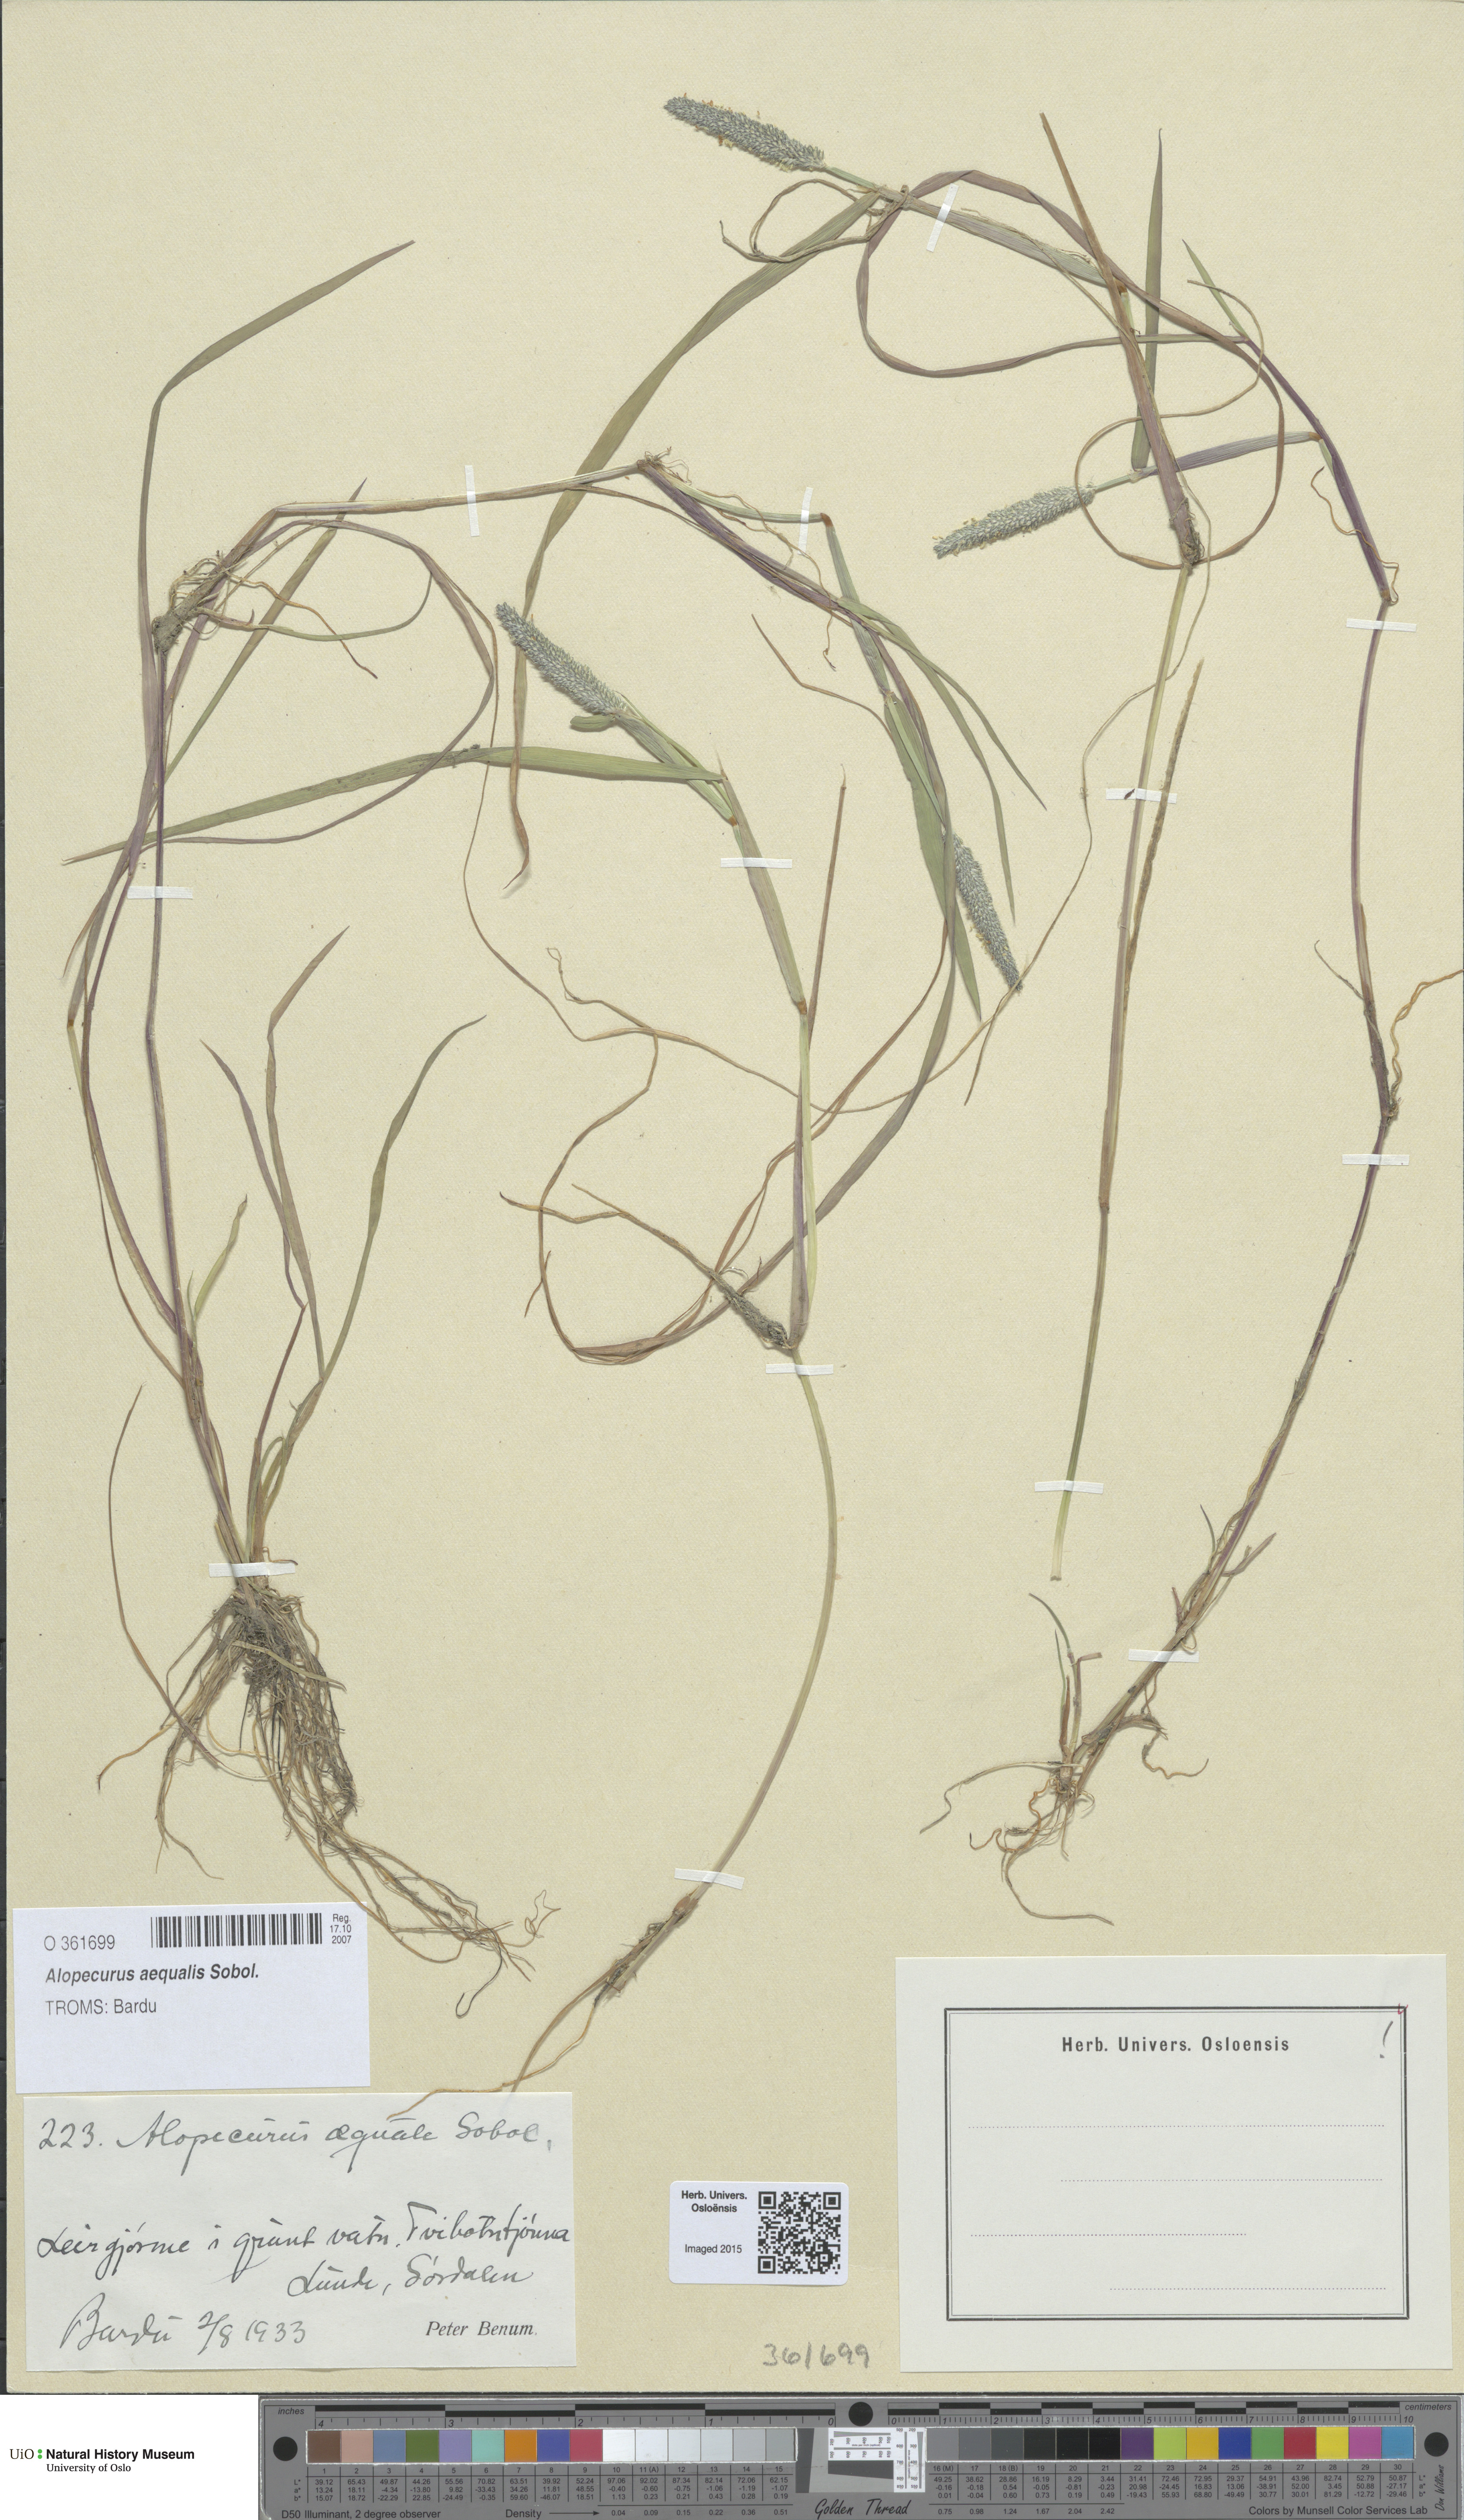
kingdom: Plantae
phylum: Tracheophyta
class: Liliopsida
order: Poales
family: Poaceae
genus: Alopecurus
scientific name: Alopecurus aequalis
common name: Orange foxtail
